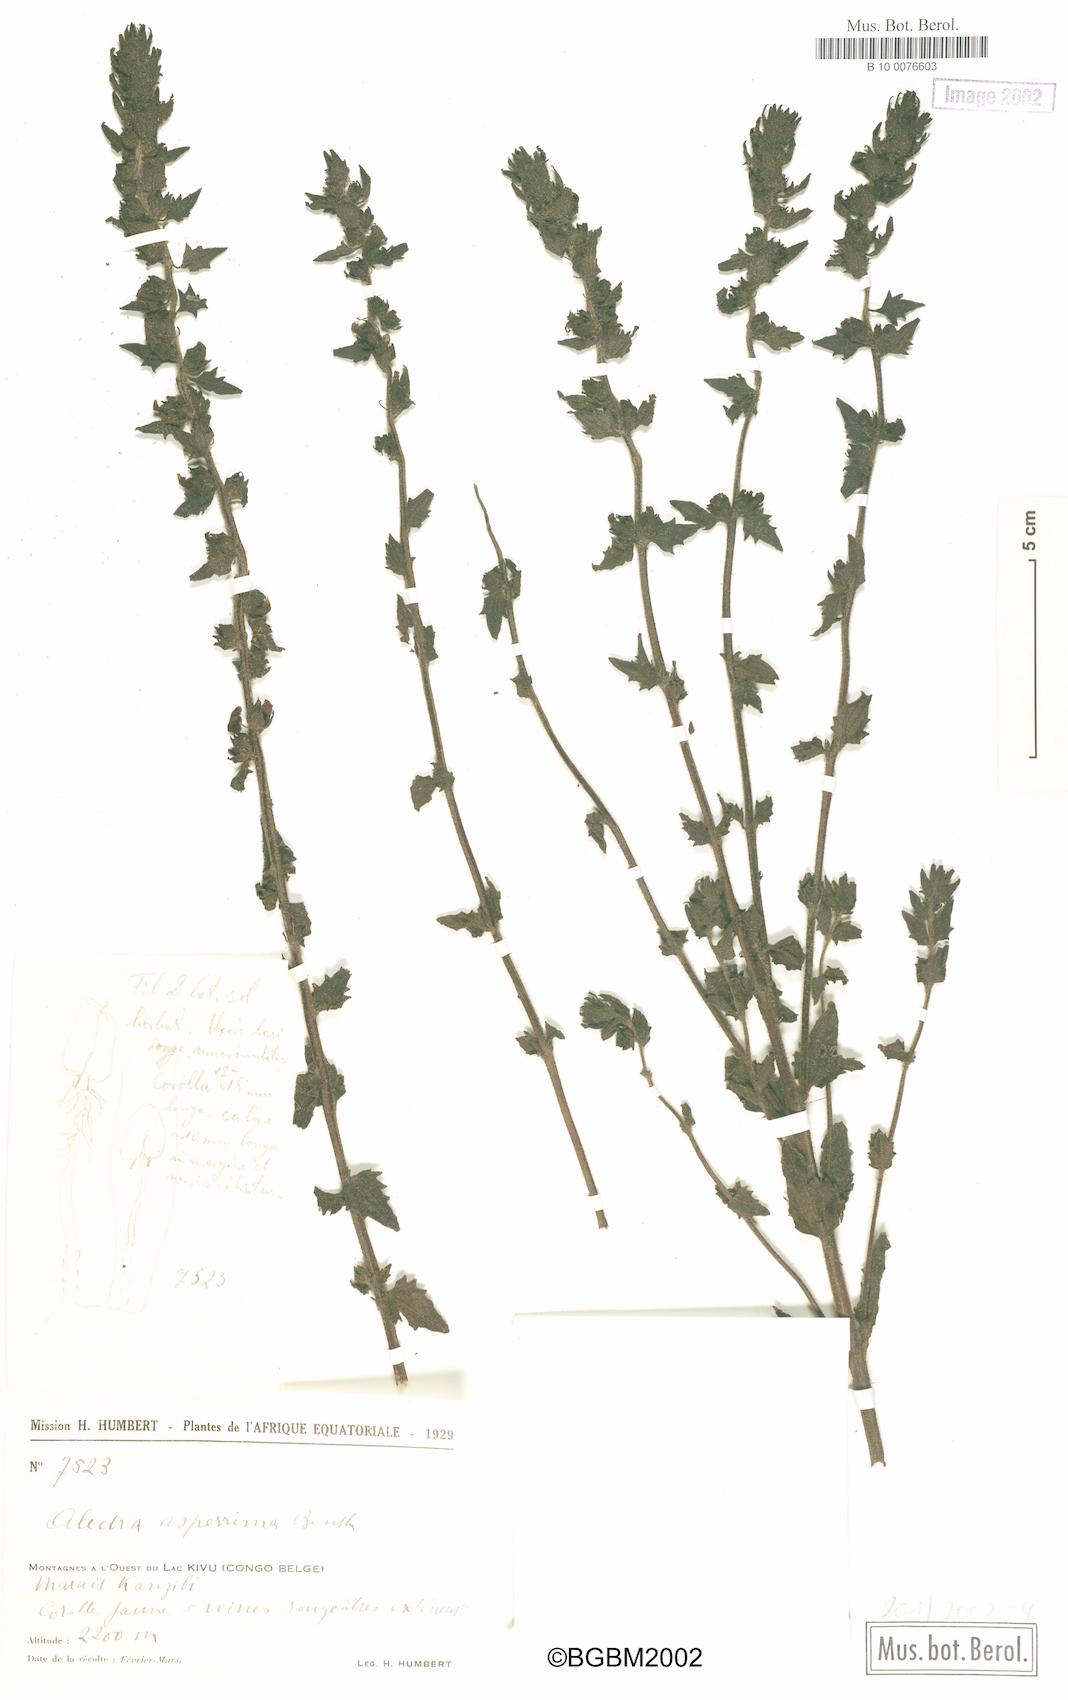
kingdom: Plantae
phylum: Tracheophyta
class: Magnoliopsida
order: Lamiales
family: Orobanchaceae
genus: Alectra
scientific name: Alectra asperrima
